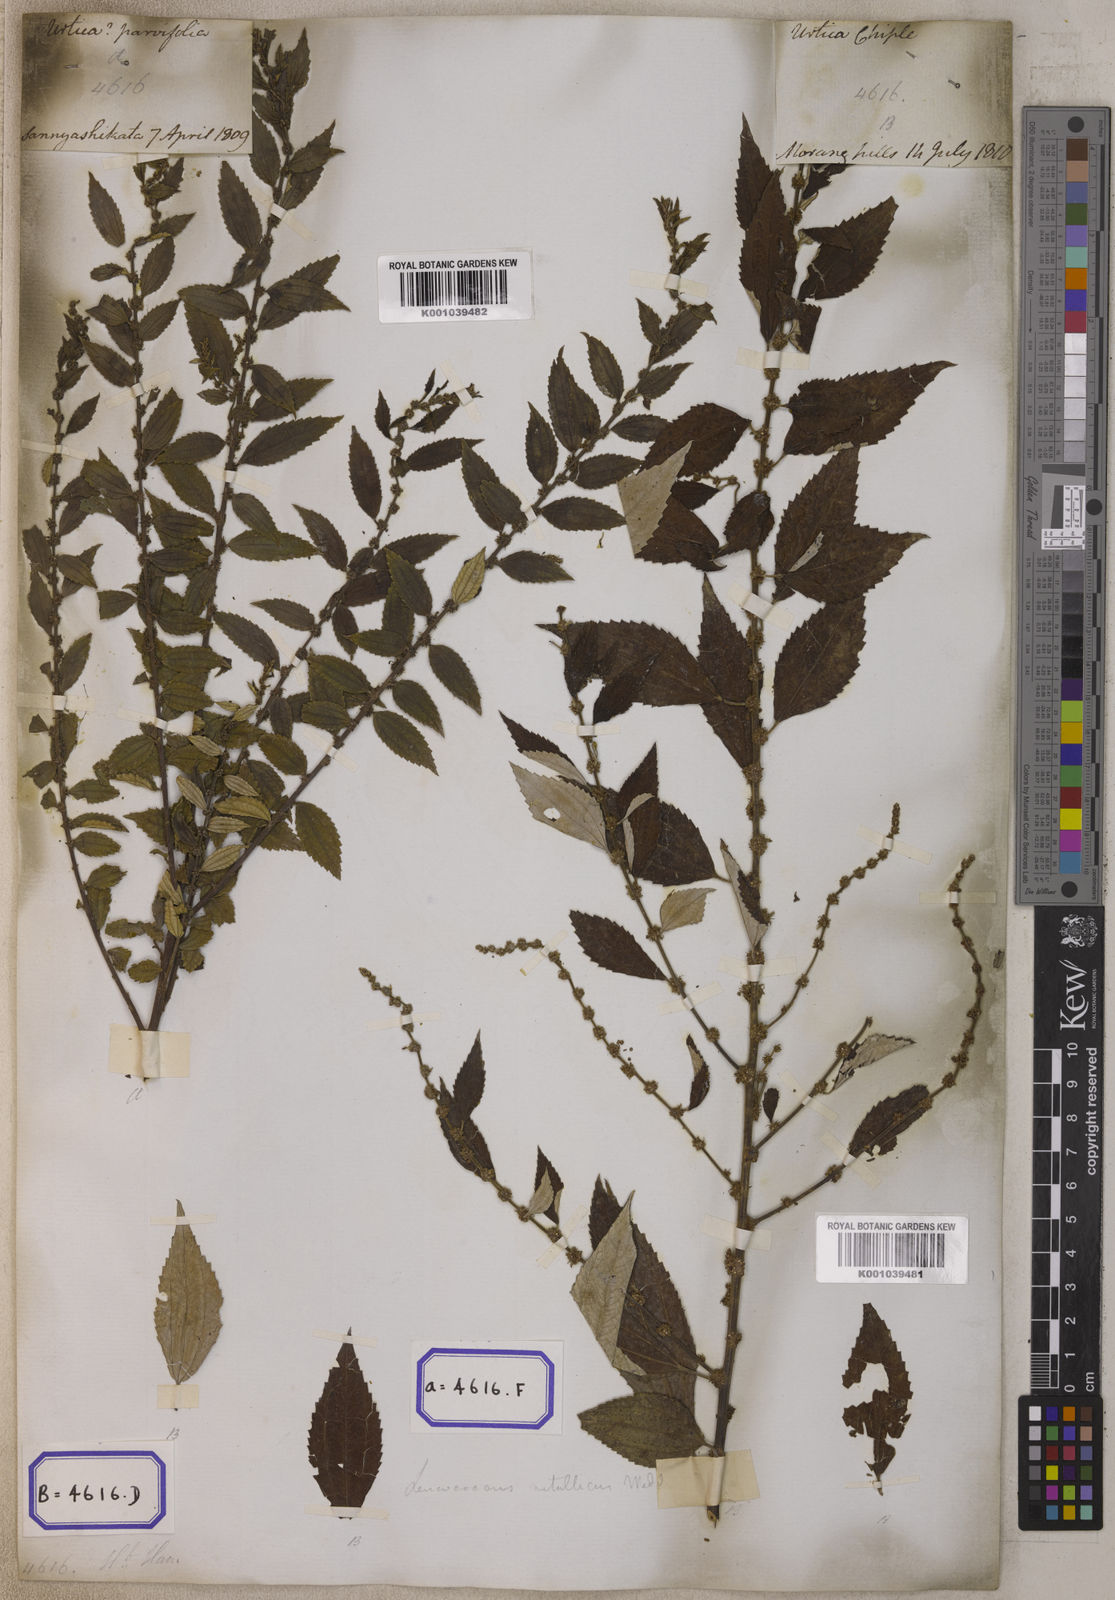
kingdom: Plantae
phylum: Tracheophyta
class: Magnoliopsida
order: Rosales
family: Urticaceae
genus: Pouzolzia
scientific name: Pouzolzia sanguinea
